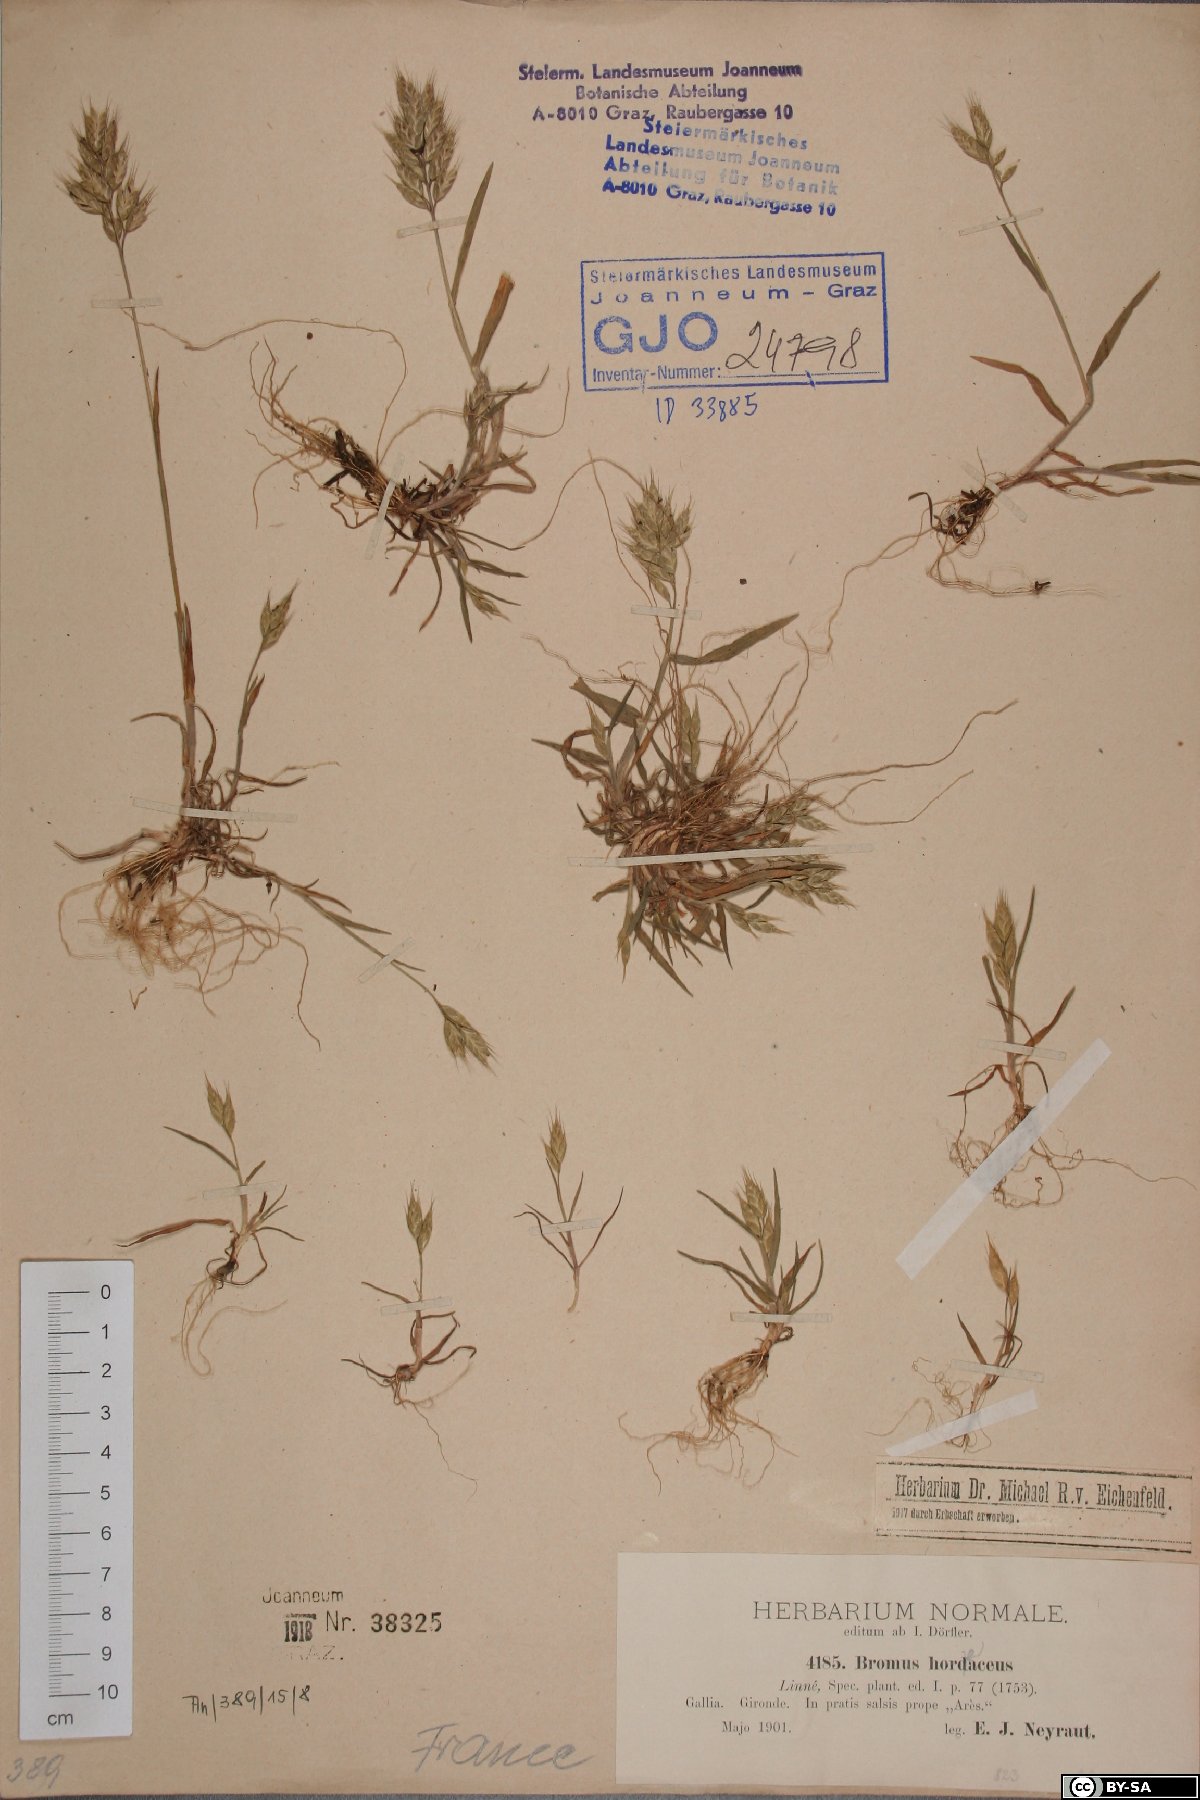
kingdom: Plantae
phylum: Tracheophyta
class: Liliopsida
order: Poales
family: Poaceae
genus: Bromus
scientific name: Bromus hordeaceus
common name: Soft brome
